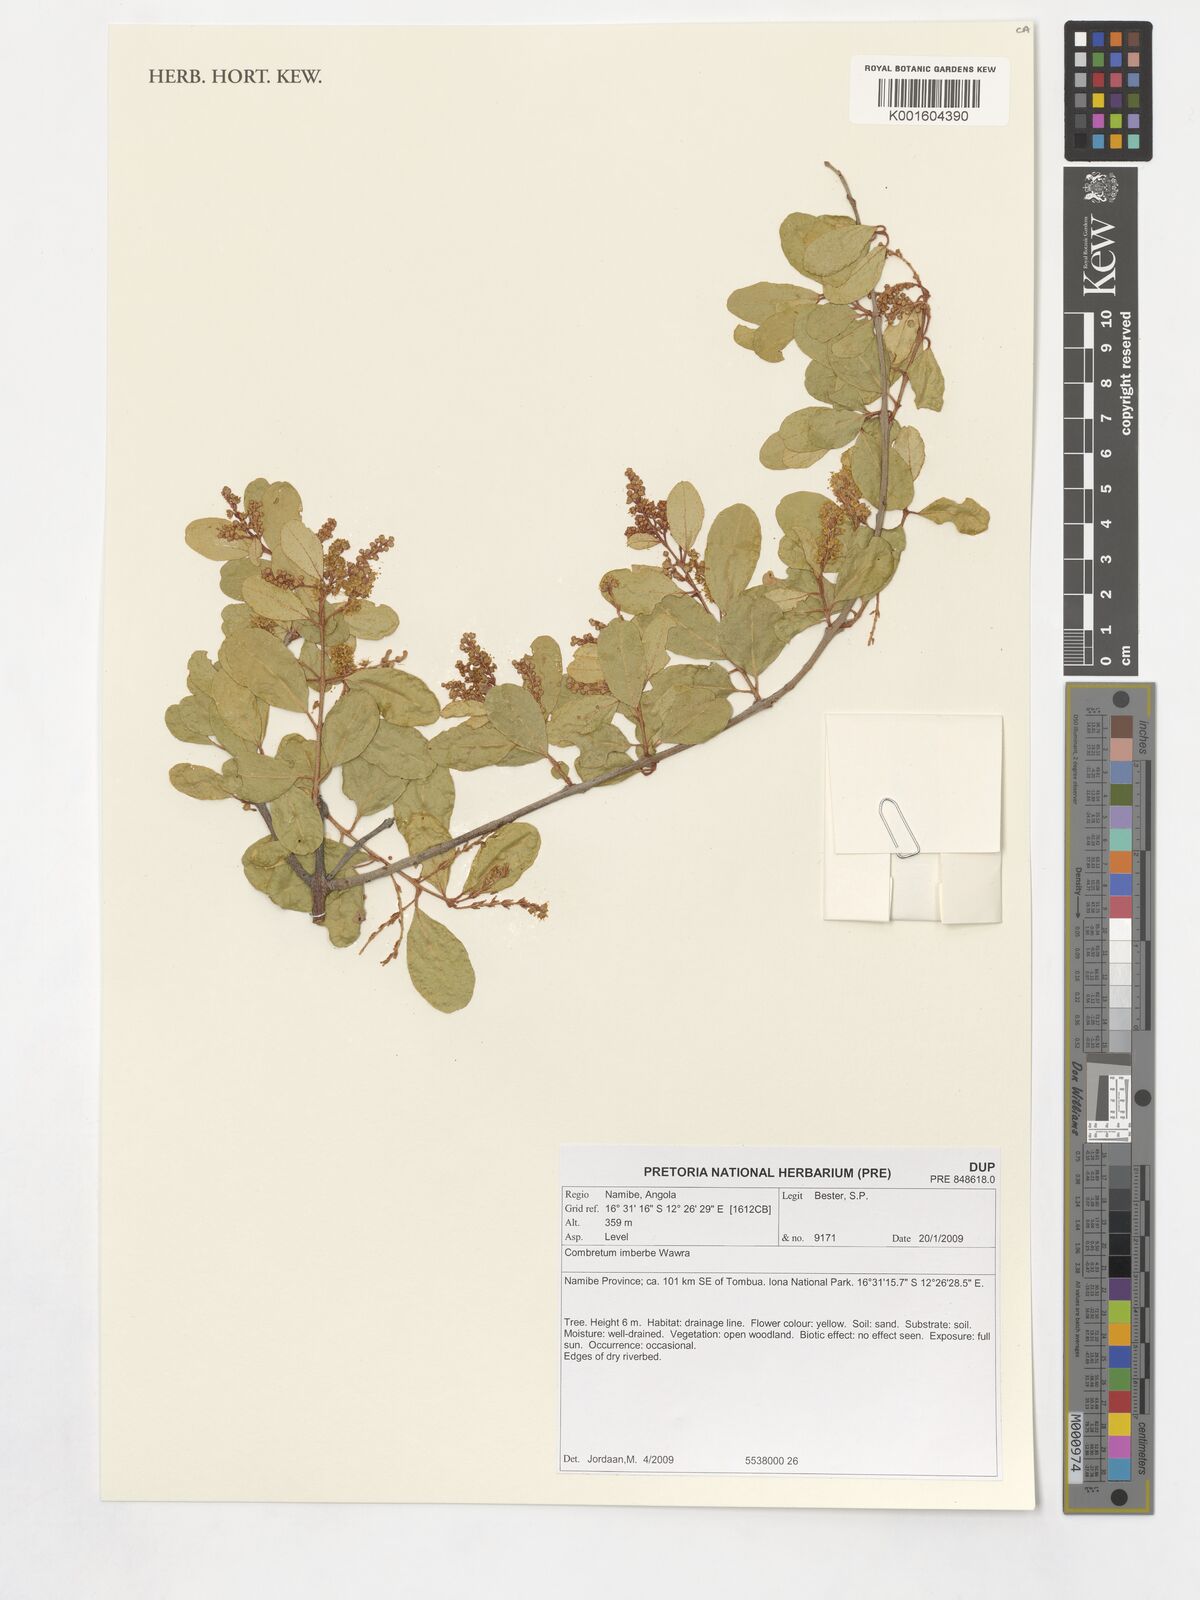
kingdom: Plantae
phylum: Tracheophyta
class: Magnoliopsida
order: Myrtales
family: Combretaceae
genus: Combretum
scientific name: Combretum imberbe
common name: Leadwood
